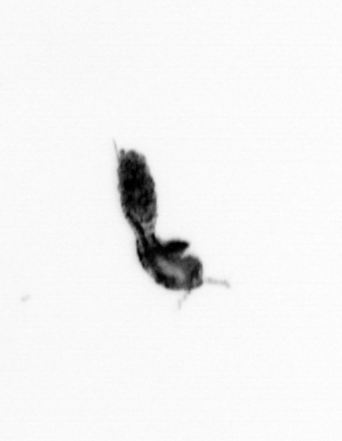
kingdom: Animalia
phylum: Arthropoda
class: Copepoda
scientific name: Copepoda
